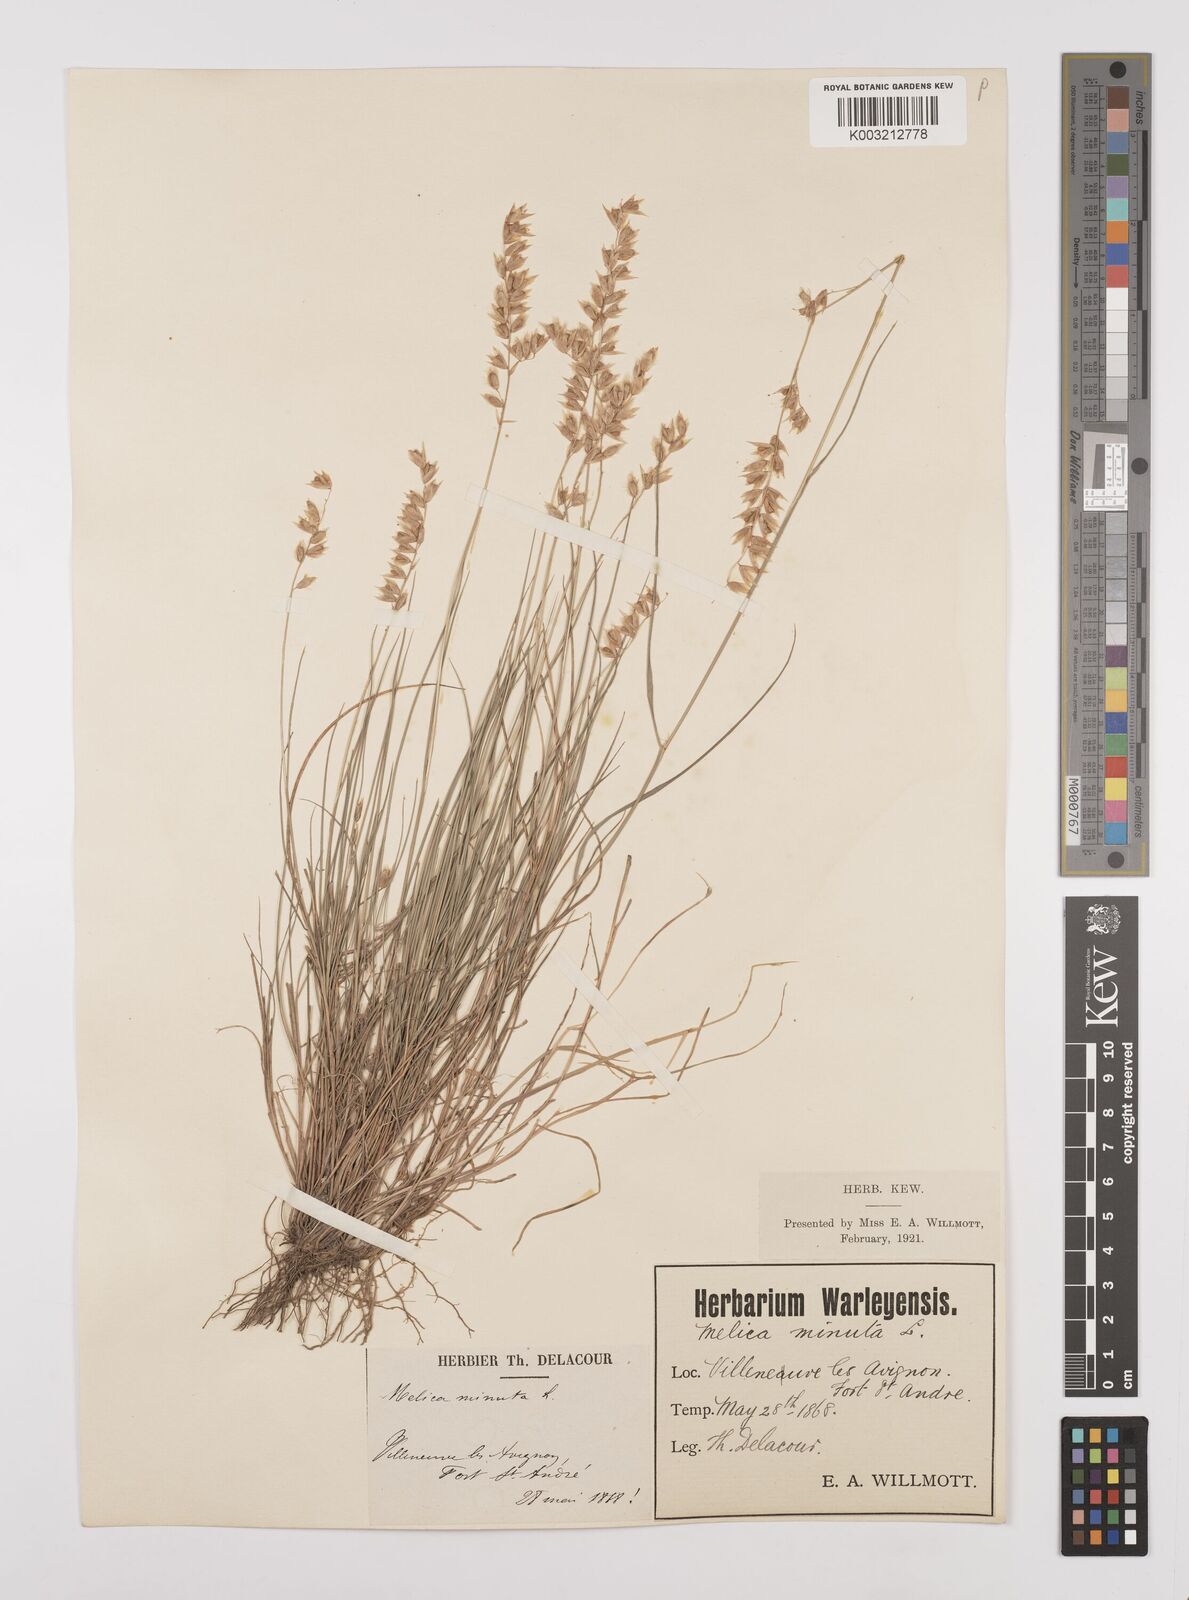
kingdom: Plantae
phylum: Tracheophyta
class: Liliopsida
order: Poales
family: Poaceae
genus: Melica
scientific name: Melica minuta
